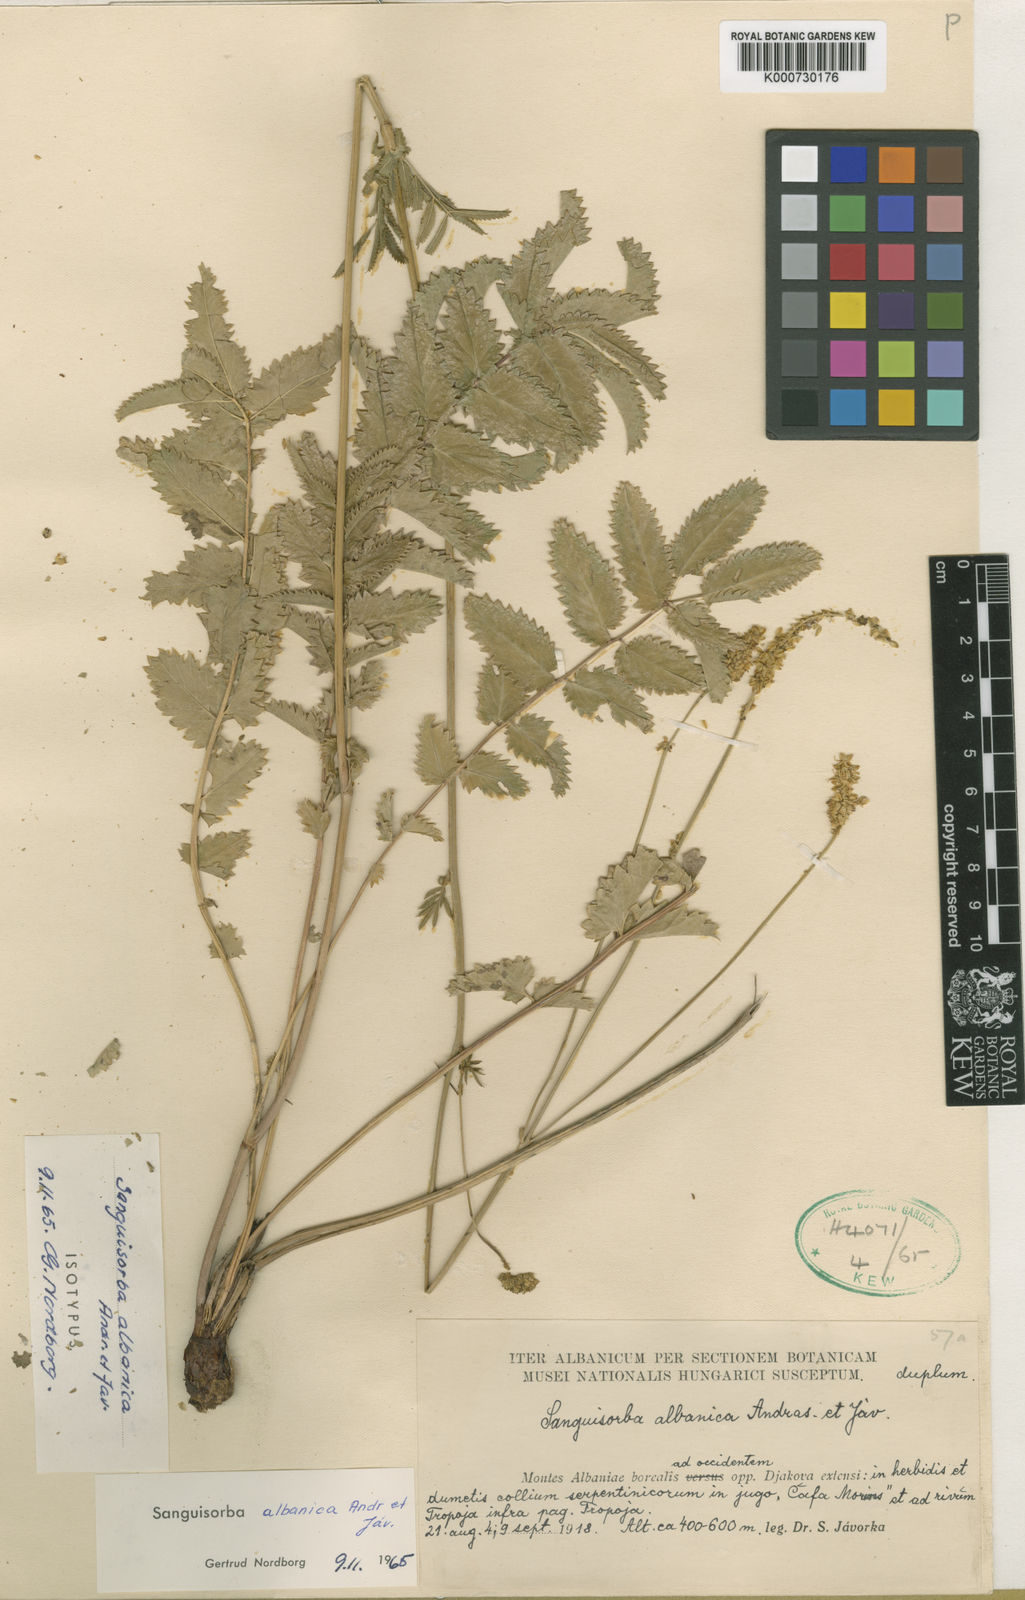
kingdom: Plantae
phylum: Tracheophyta
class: Magnoliopsida
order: Rosales
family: Rosaceae
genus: Sanguisorba
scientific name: Sanguisorba albanica
